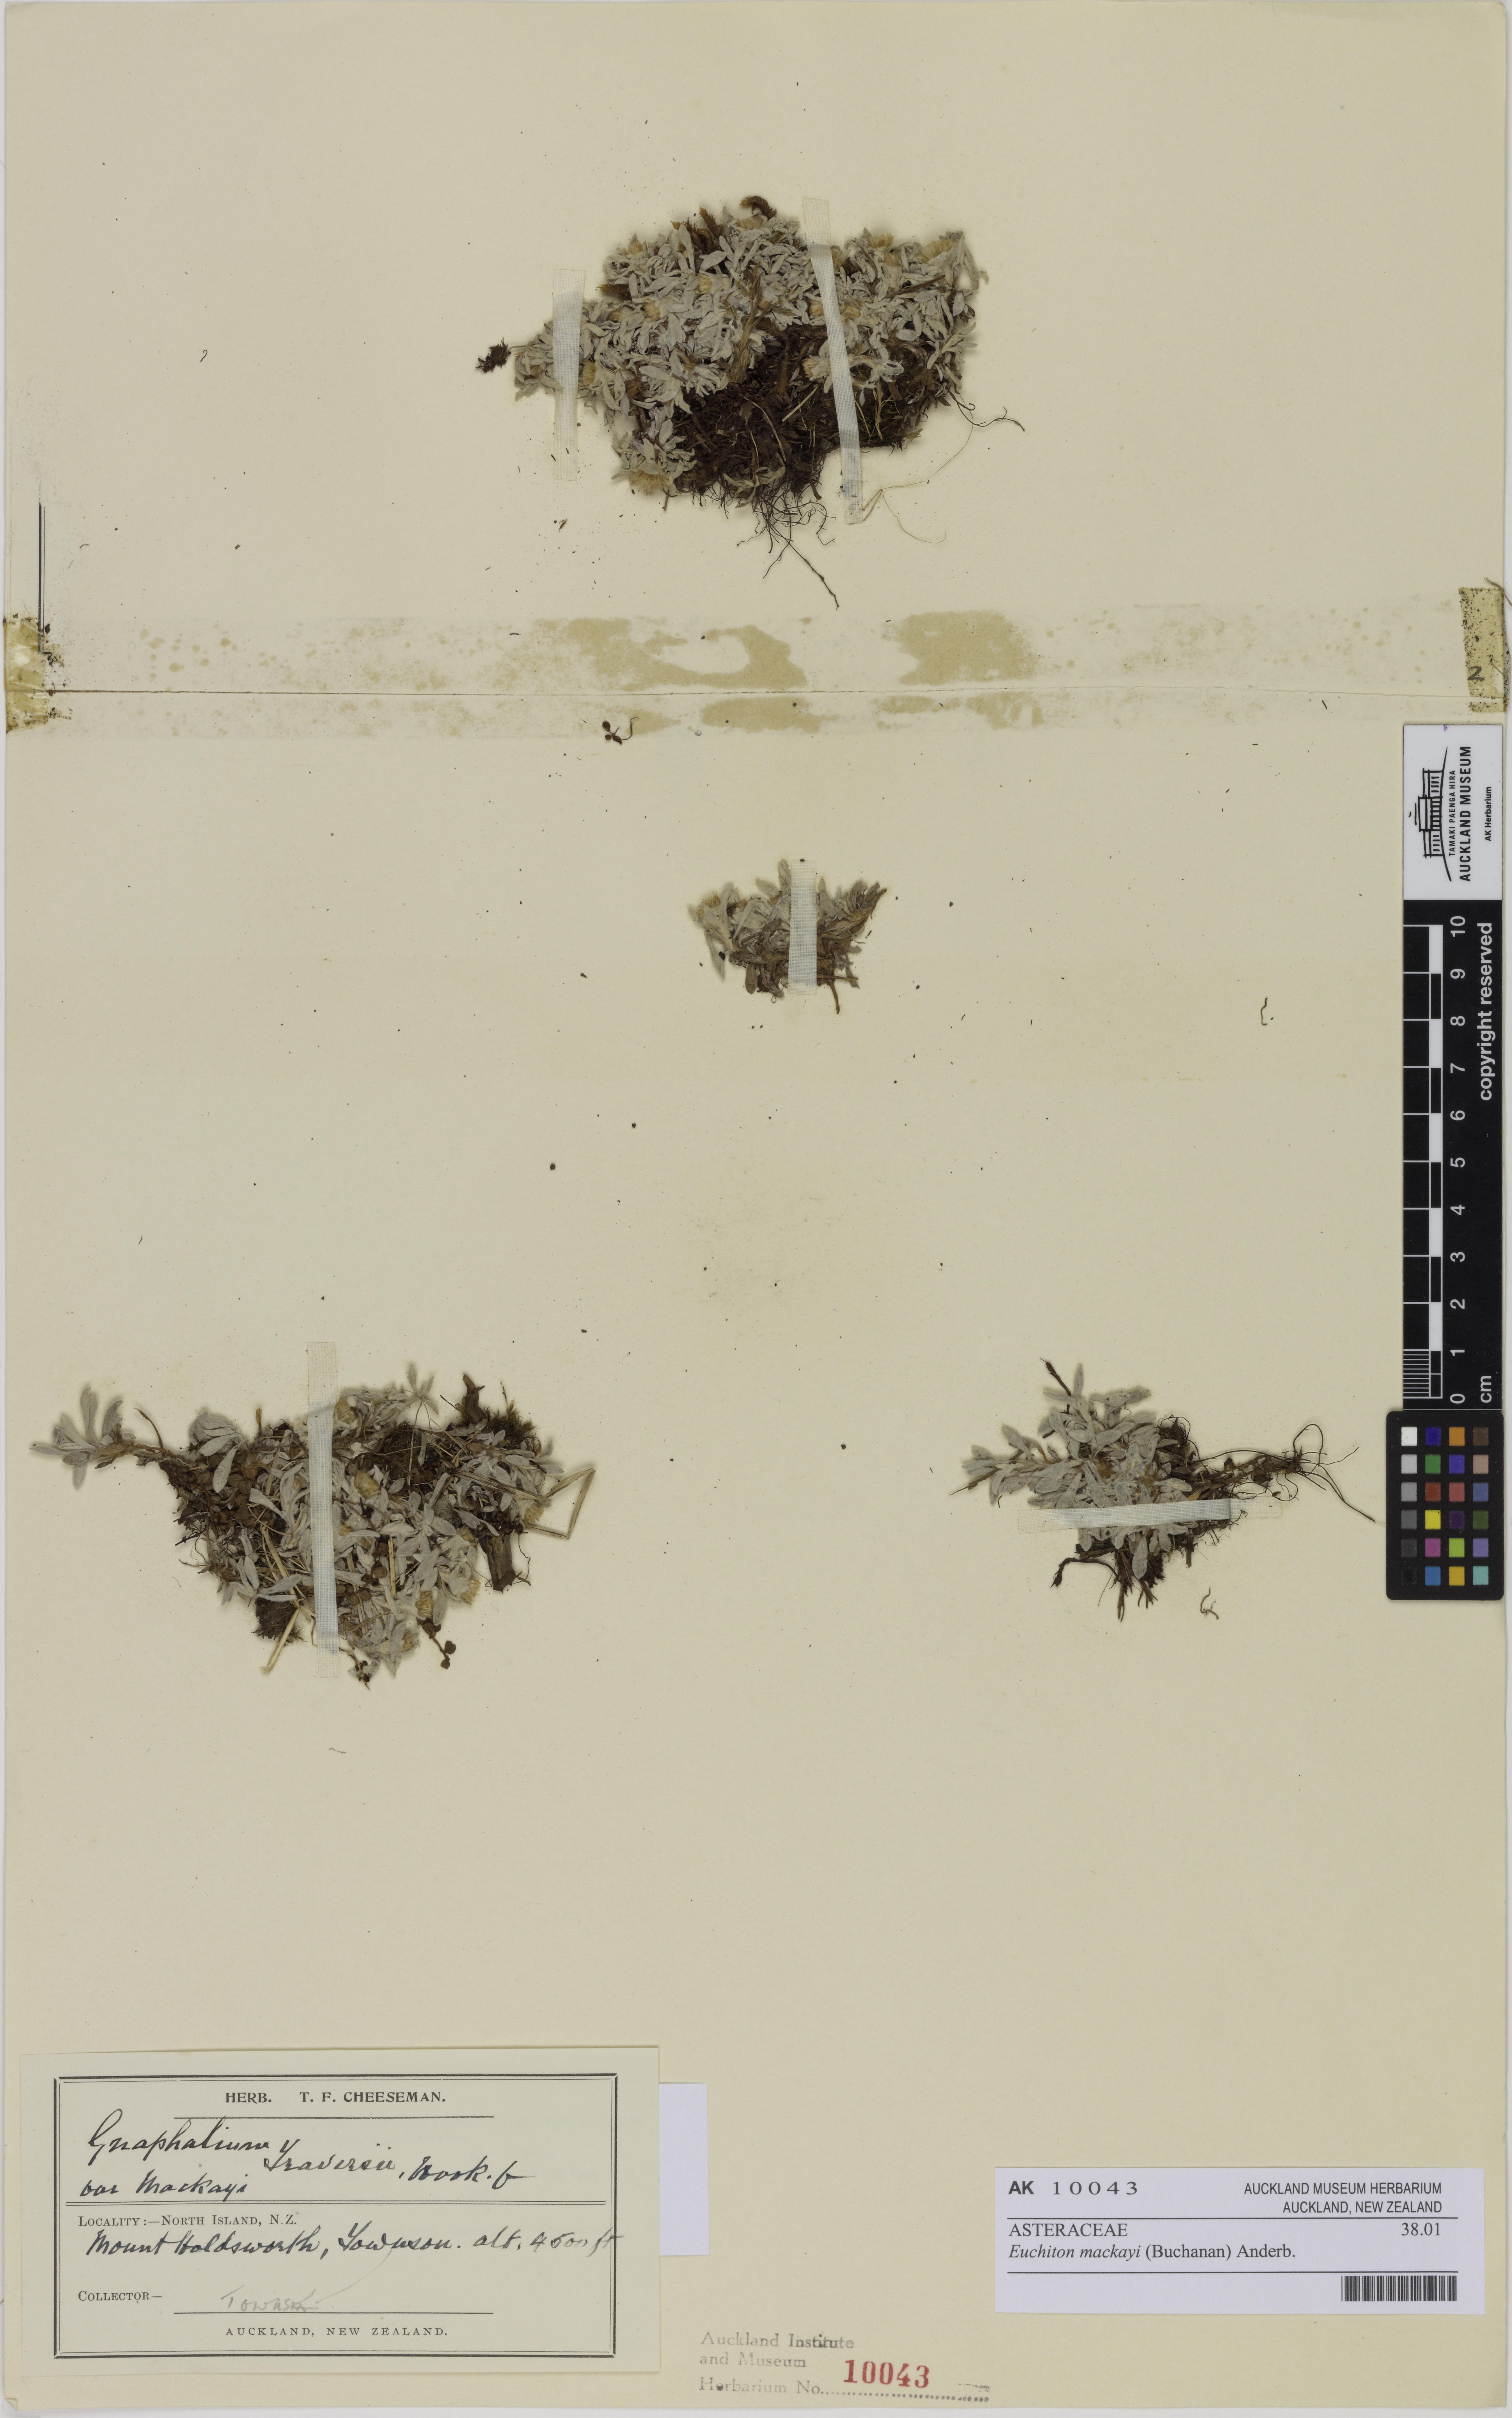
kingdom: Plantae
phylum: Tracheophyta
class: Magnoliopsida
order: Asterales
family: Asteraceae
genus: Argyrotegium
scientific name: Argyrotegium mackayi
